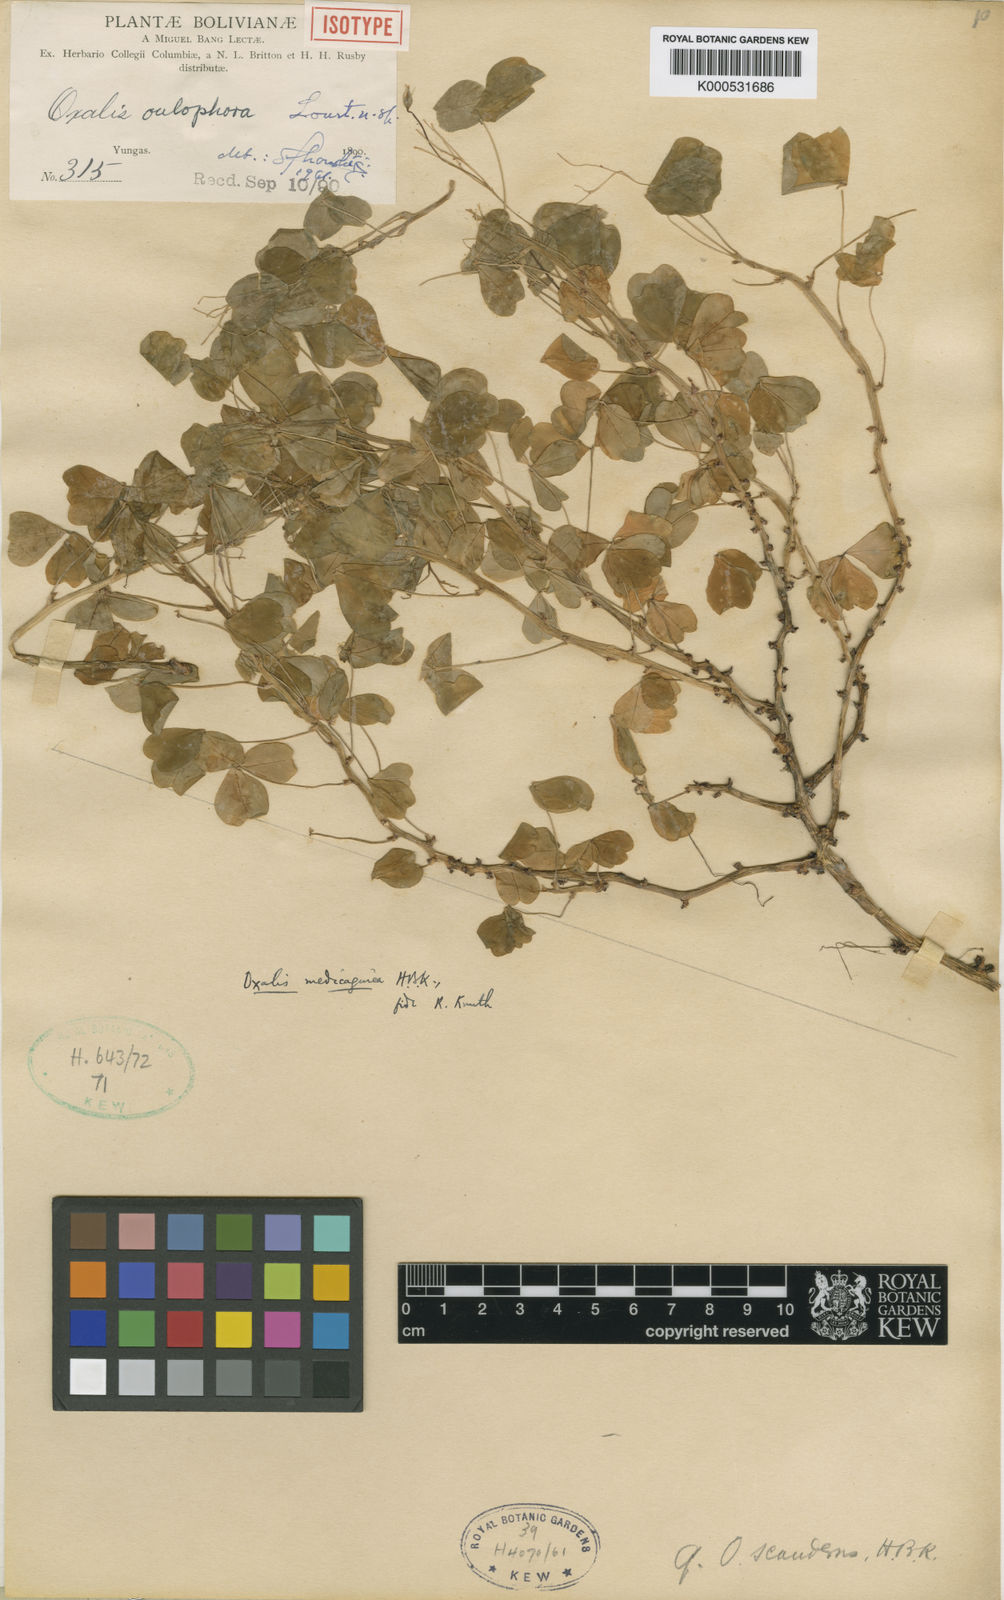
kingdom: Plantae
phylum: Tracheophyta
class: Magnoliopsida
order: Oxalidales
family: Oxalidaceae
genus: Oxalis
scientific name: Oxalis oulophora
